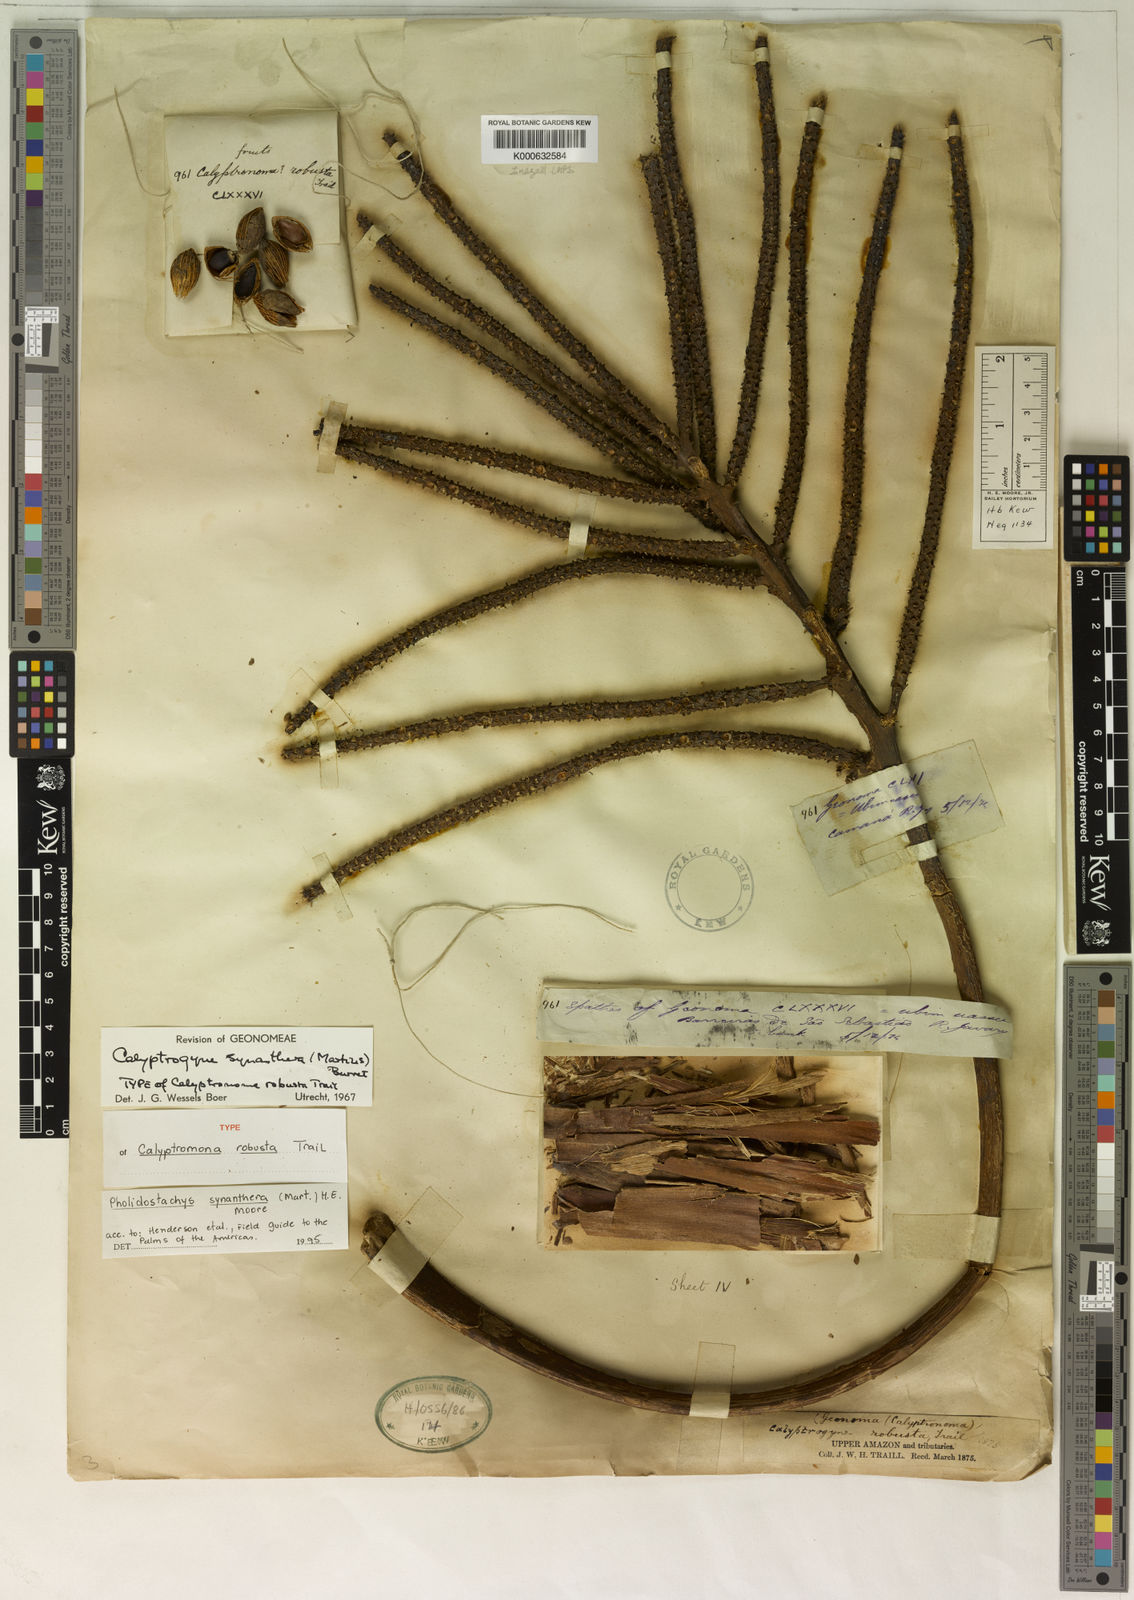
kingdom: Plantae
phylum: Tracheophyta
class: Liliopsida
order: Arecales
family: Arecaceae
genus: Pholidostachys
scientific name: Pholidostachys synanthera
